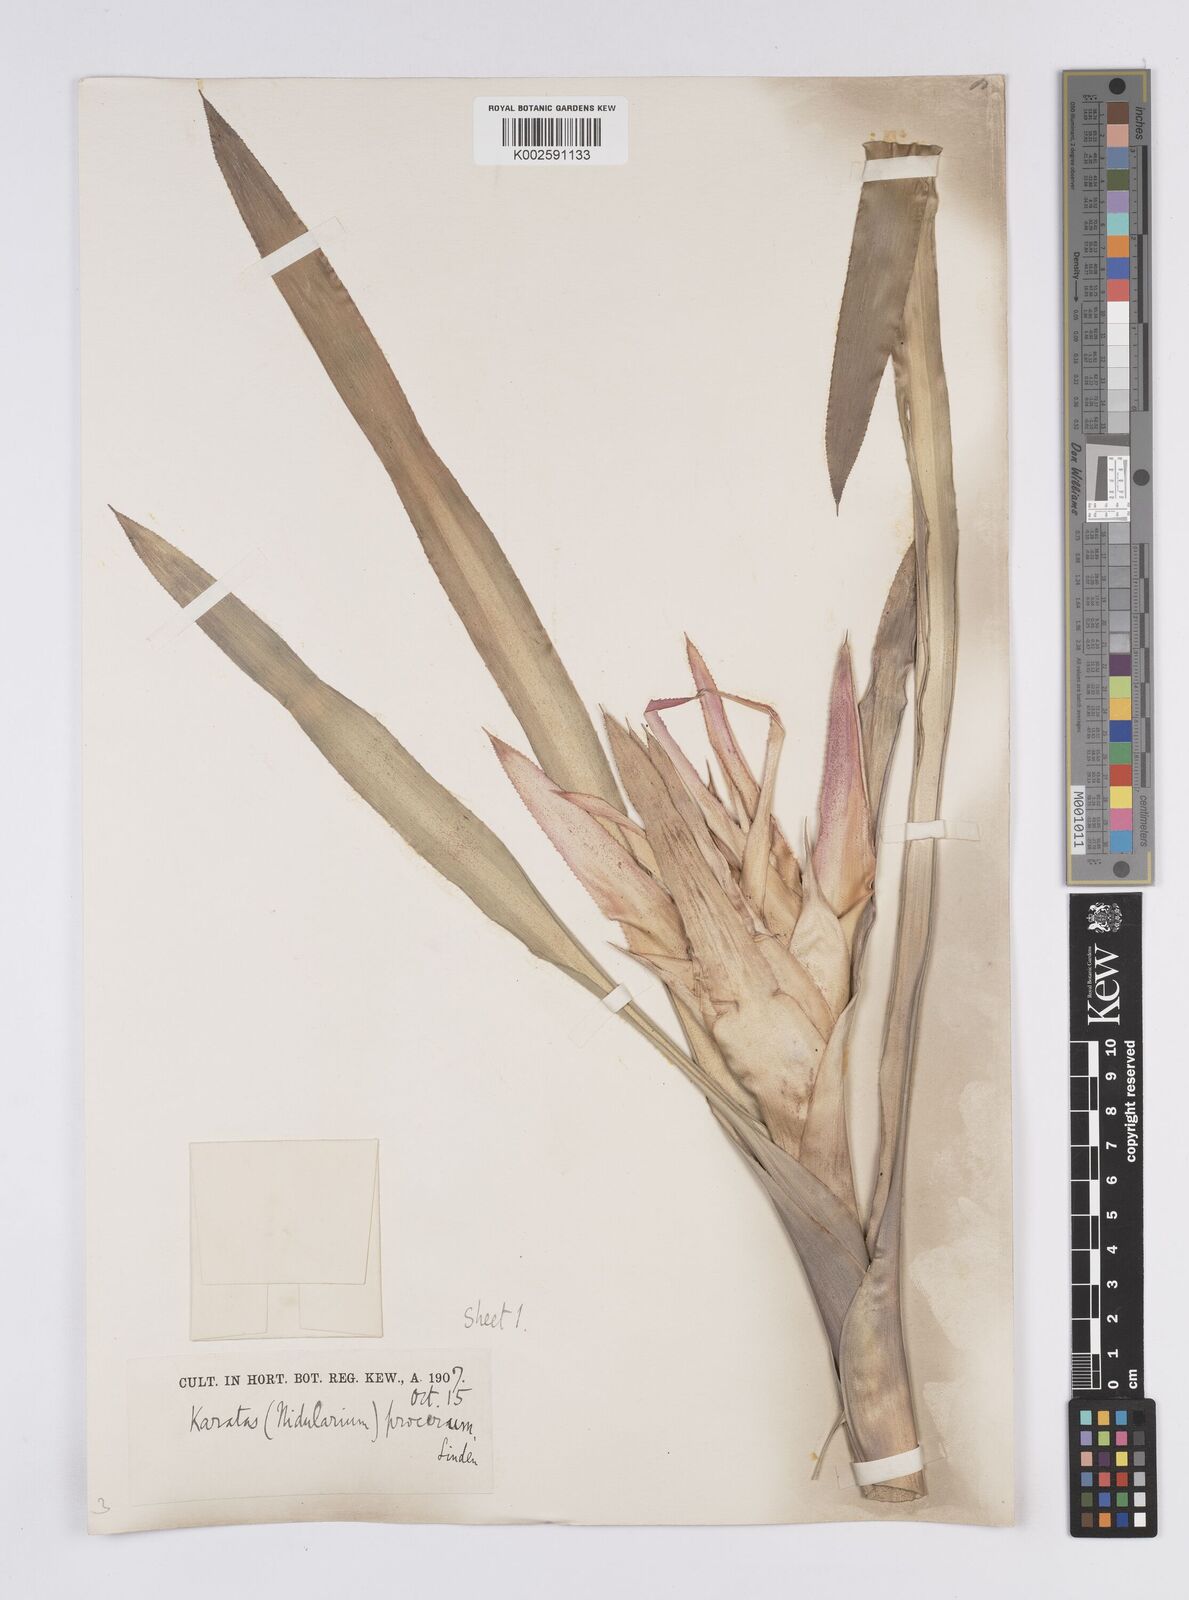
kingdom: Plantae
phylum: Tracheophyta
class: Liliopsida
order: Poales
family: Bromeliaceae
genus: Nidularium
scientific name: Nidularium procerum
